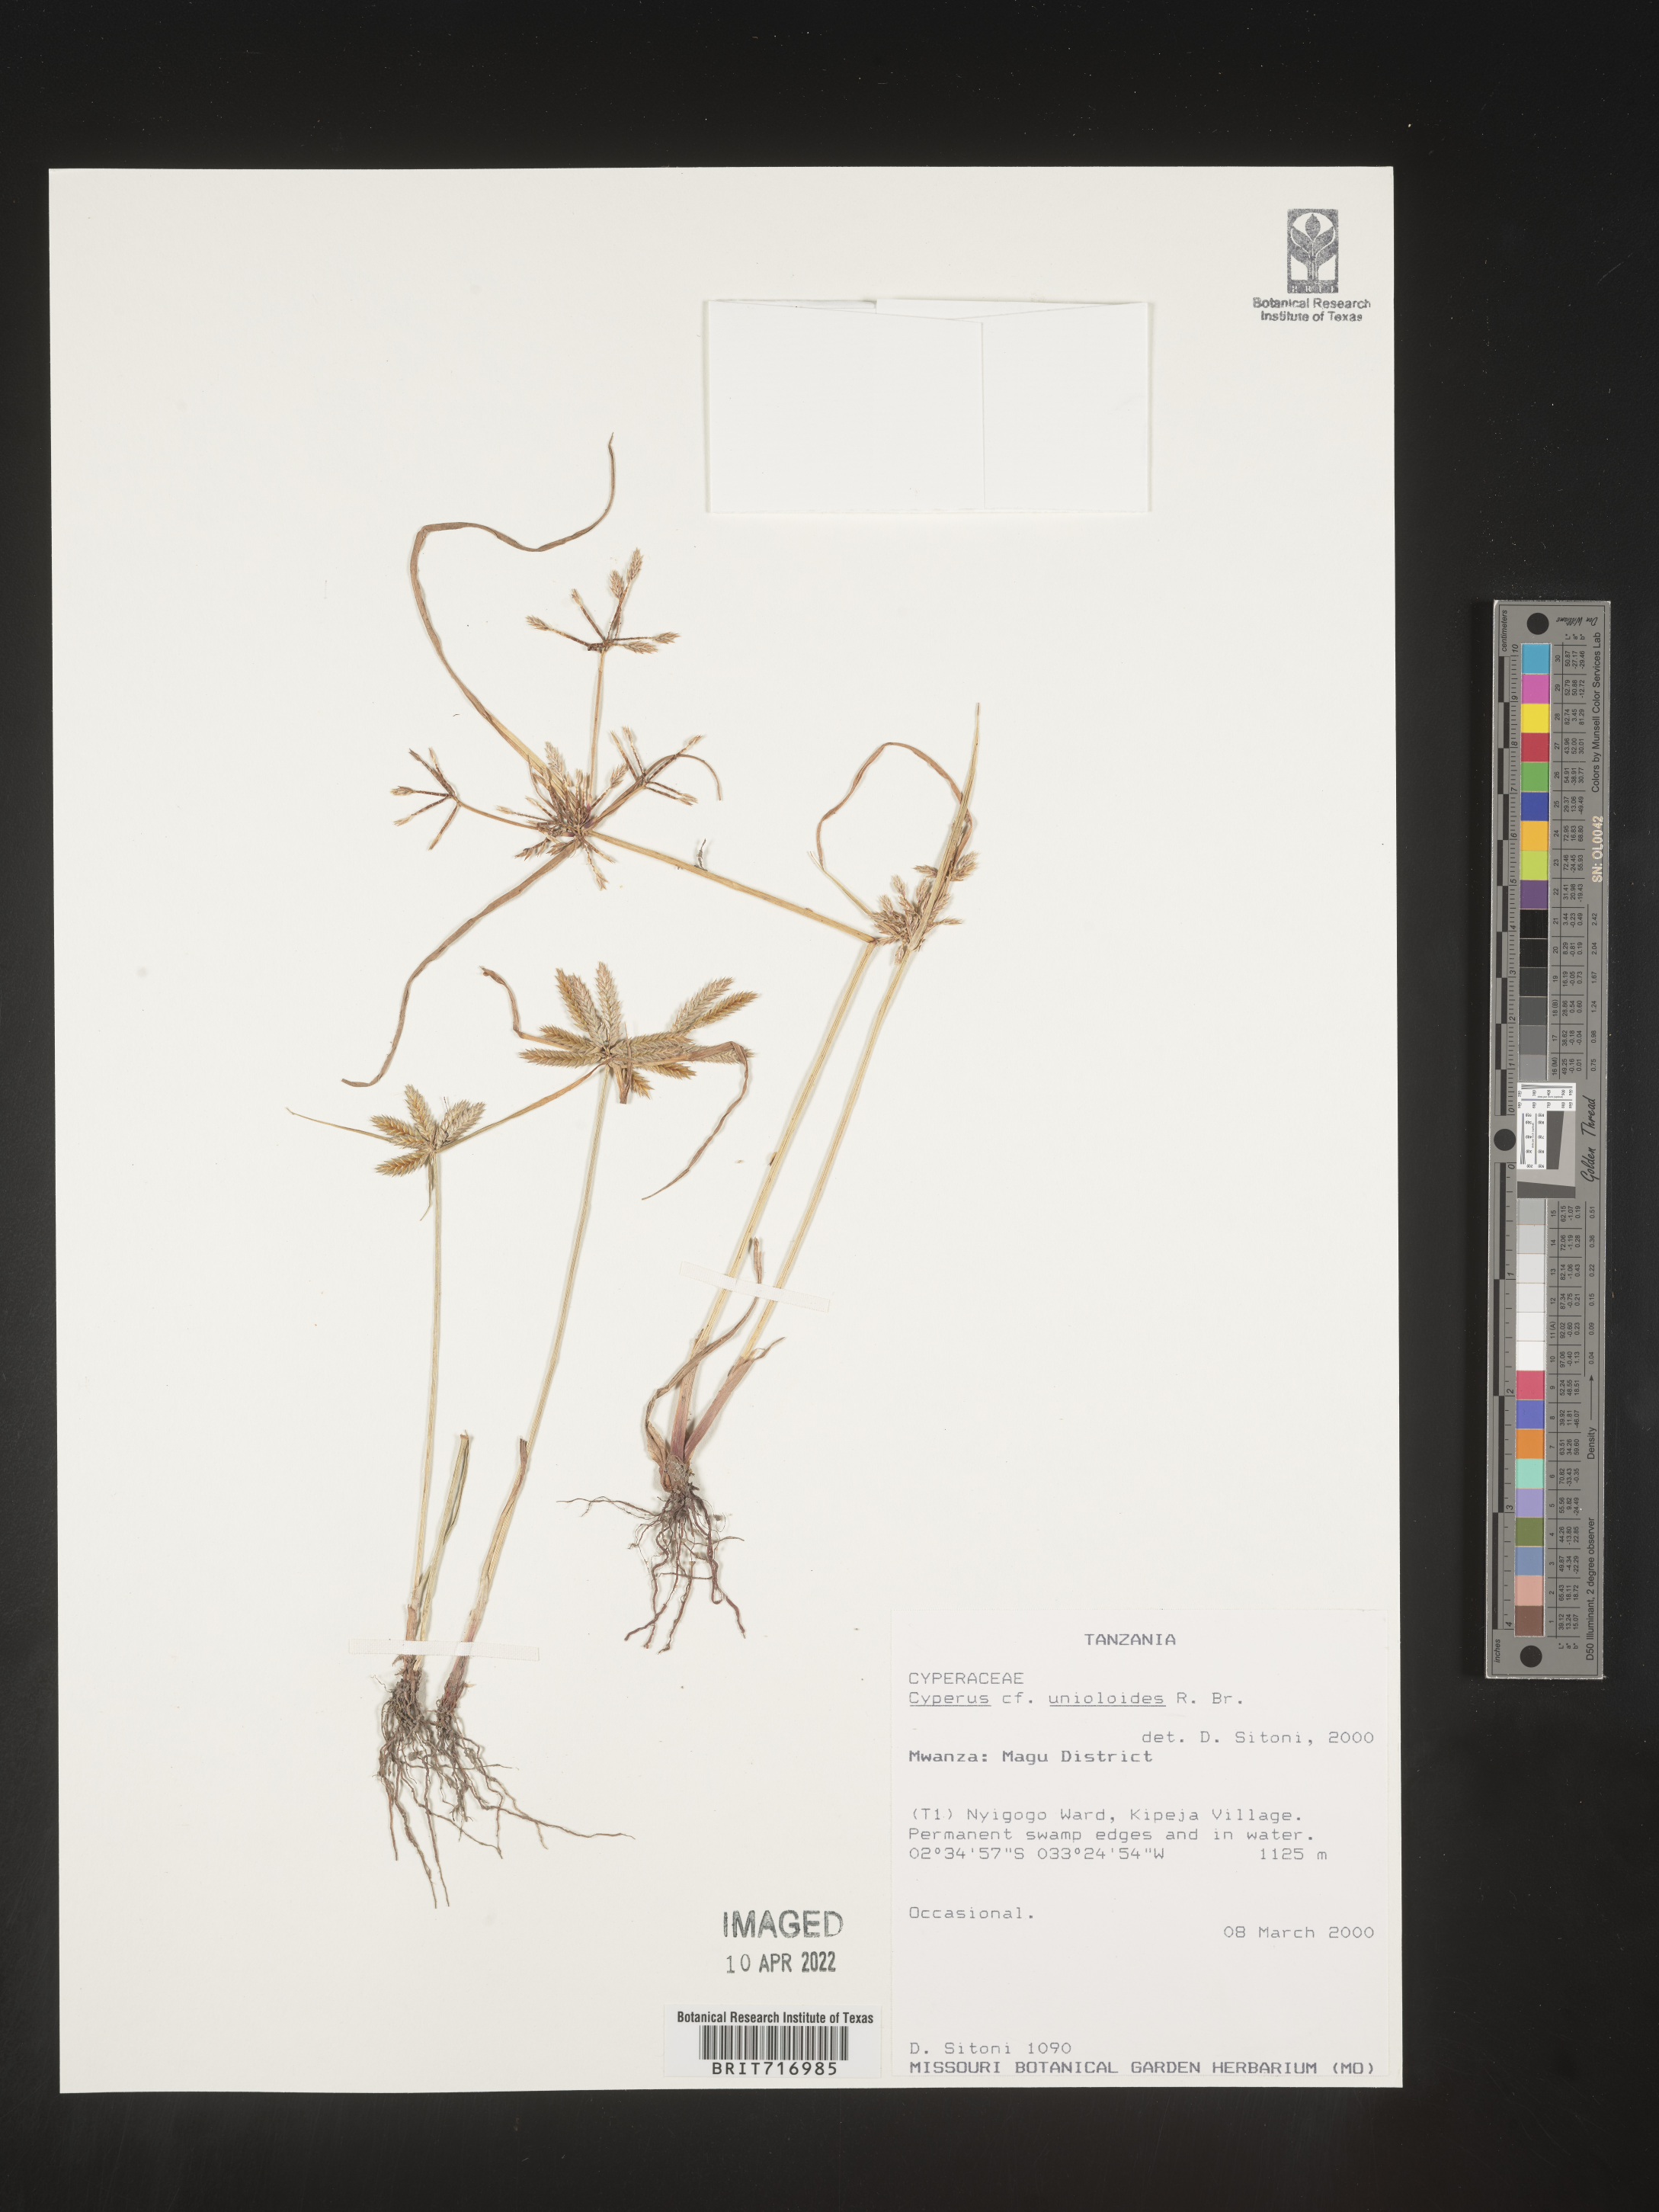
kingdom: Plantae
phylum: Tracheophyta
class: Liliopsida
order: Poales
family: Cyperaceae
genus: Cyperus
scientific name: Cyperus
